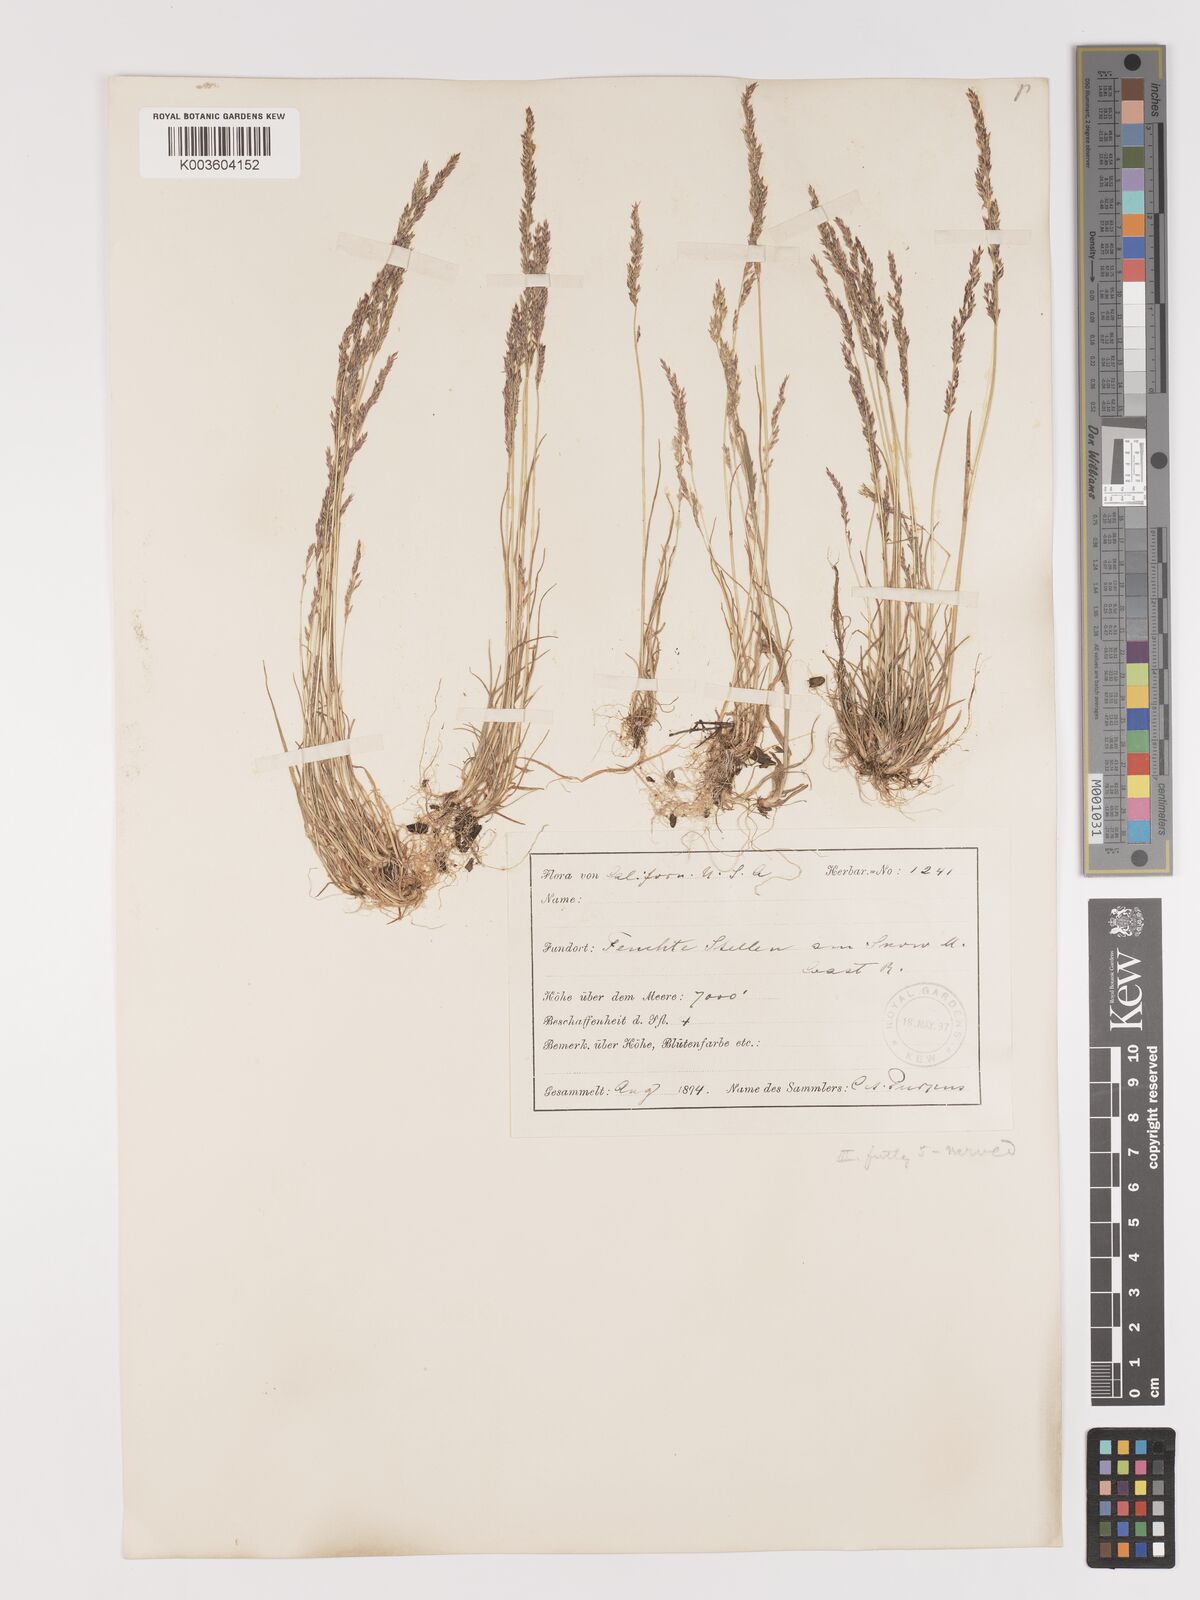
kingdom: Plantae
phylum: Tracheophyta
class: Liliopsida
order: Poales
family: Poaceae
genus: Agrostis
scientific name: Agrostis rossiae
